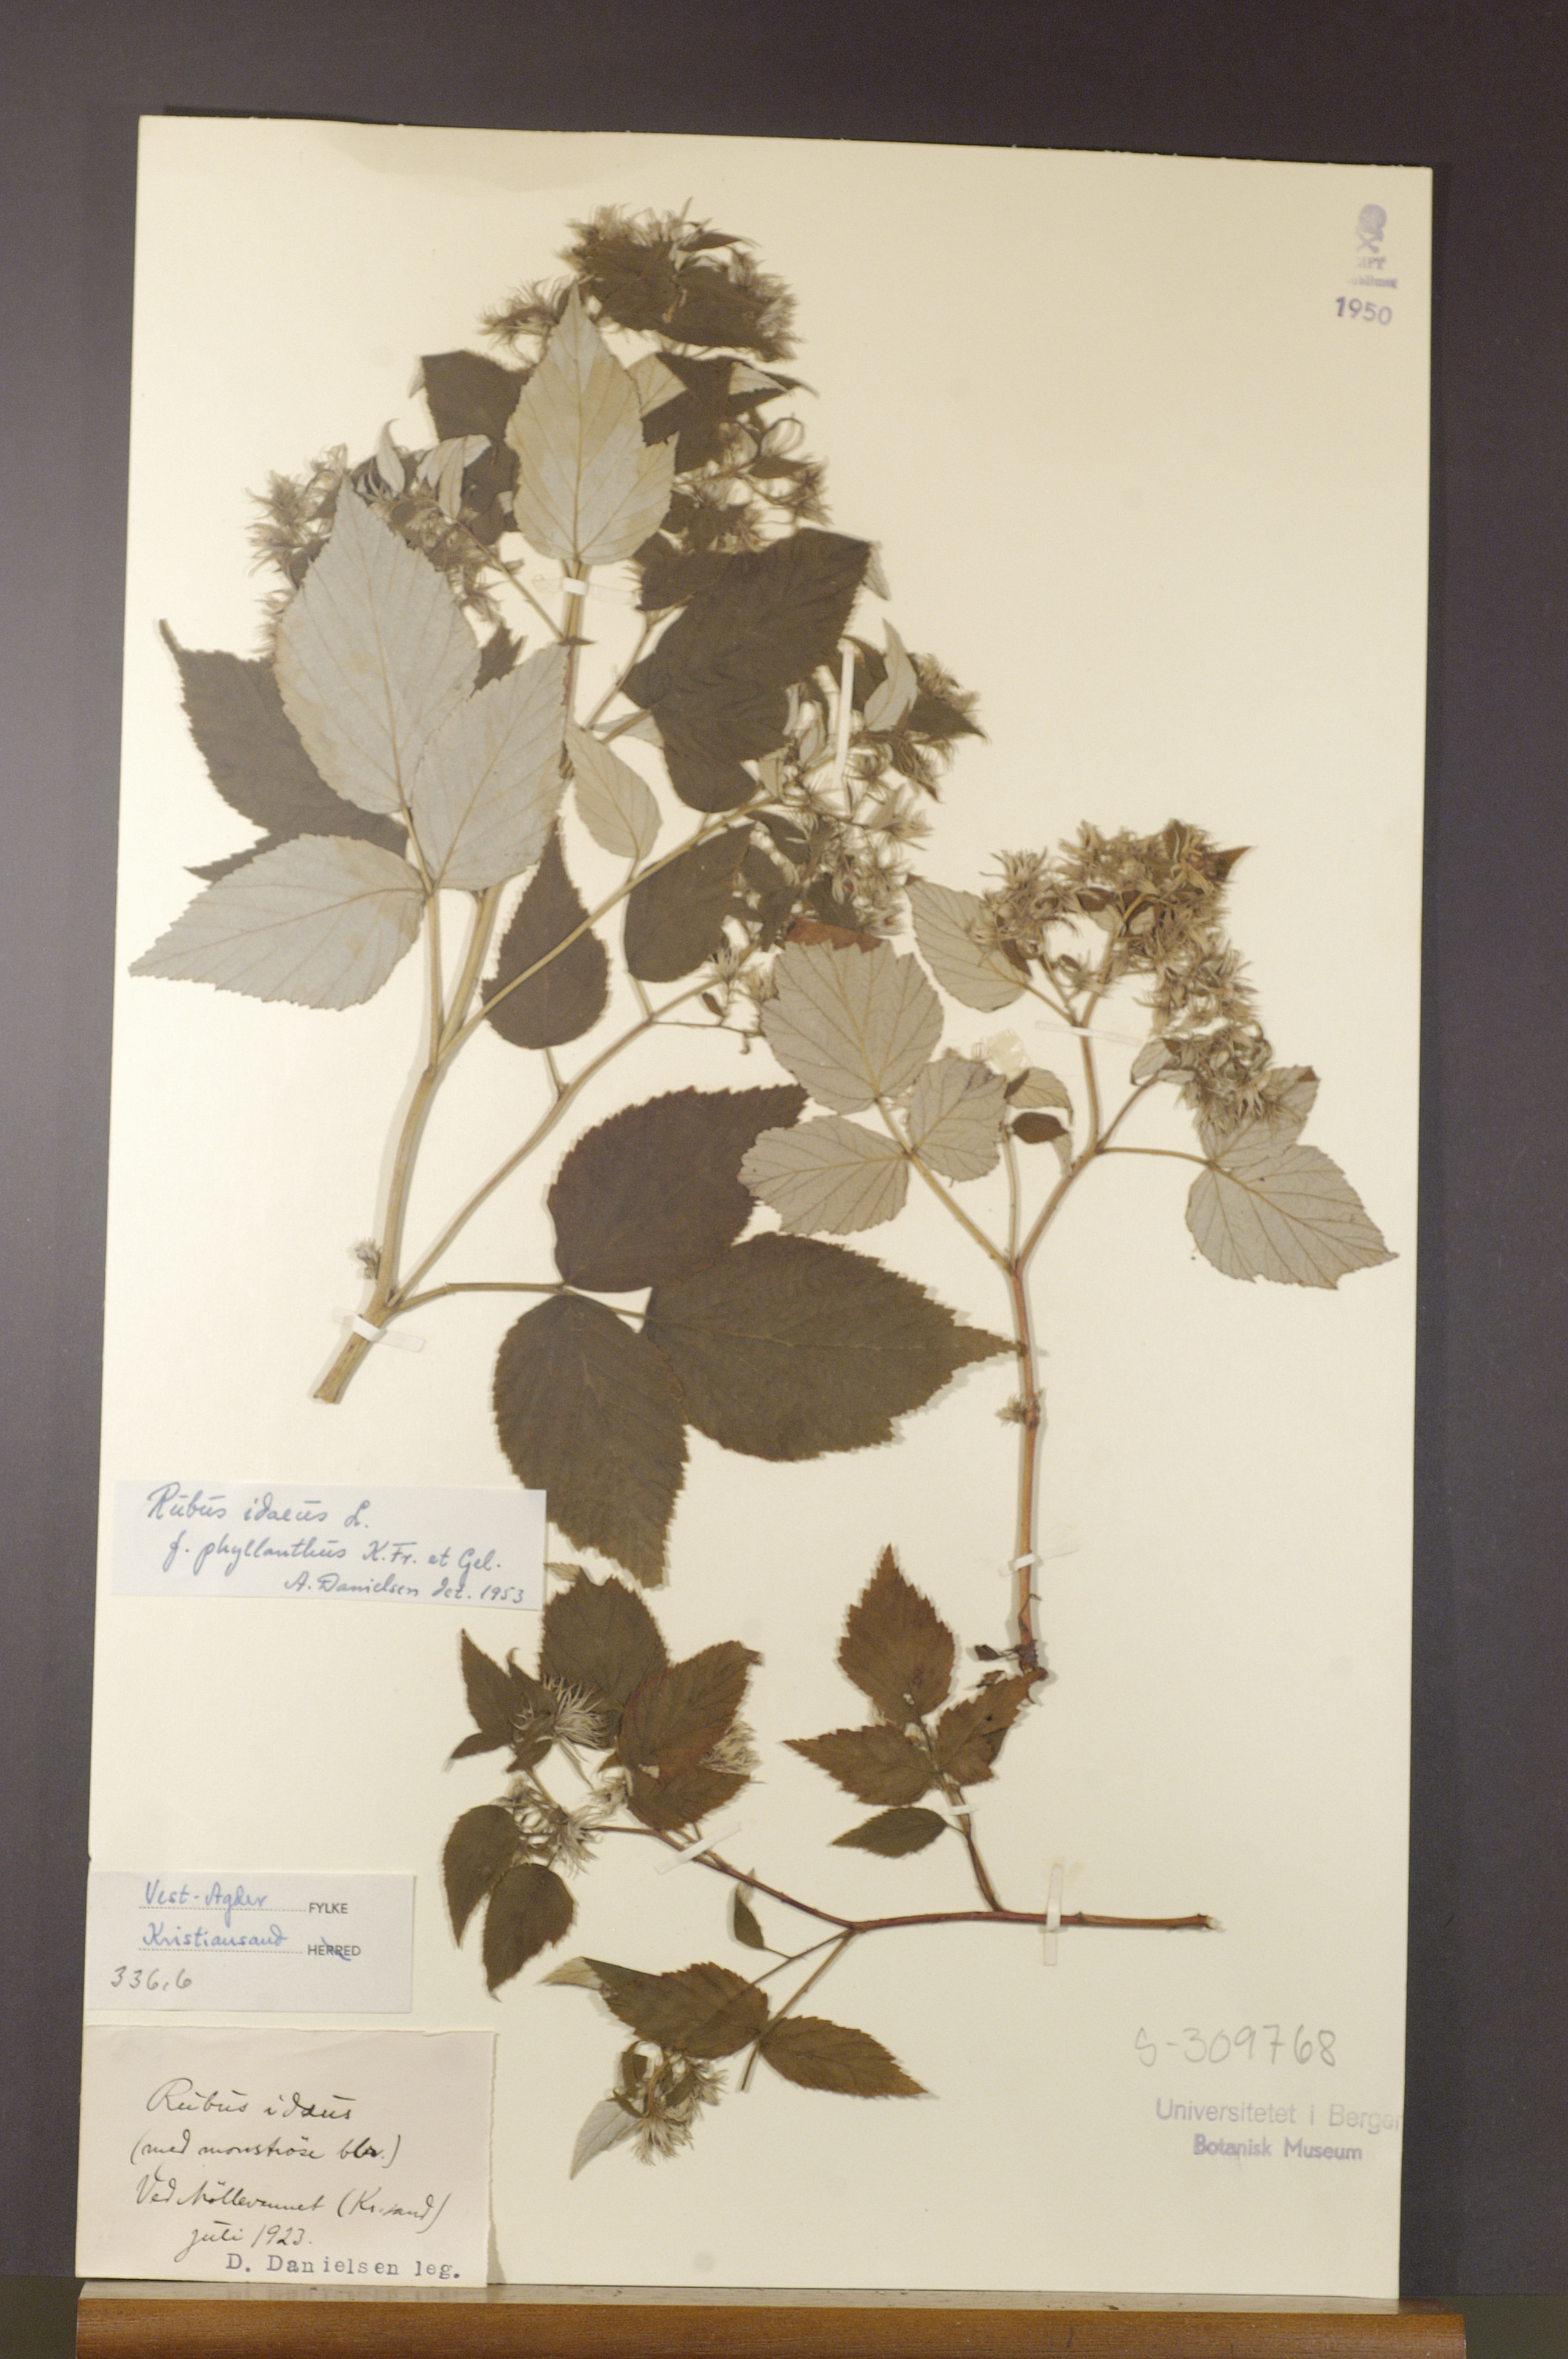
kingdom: Plantae
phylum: Tracheophyta
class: Magnoliopsida
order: Rosales
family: Rosaceae
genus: Rubus
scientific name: Rubus idaeus
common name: Raspberry
